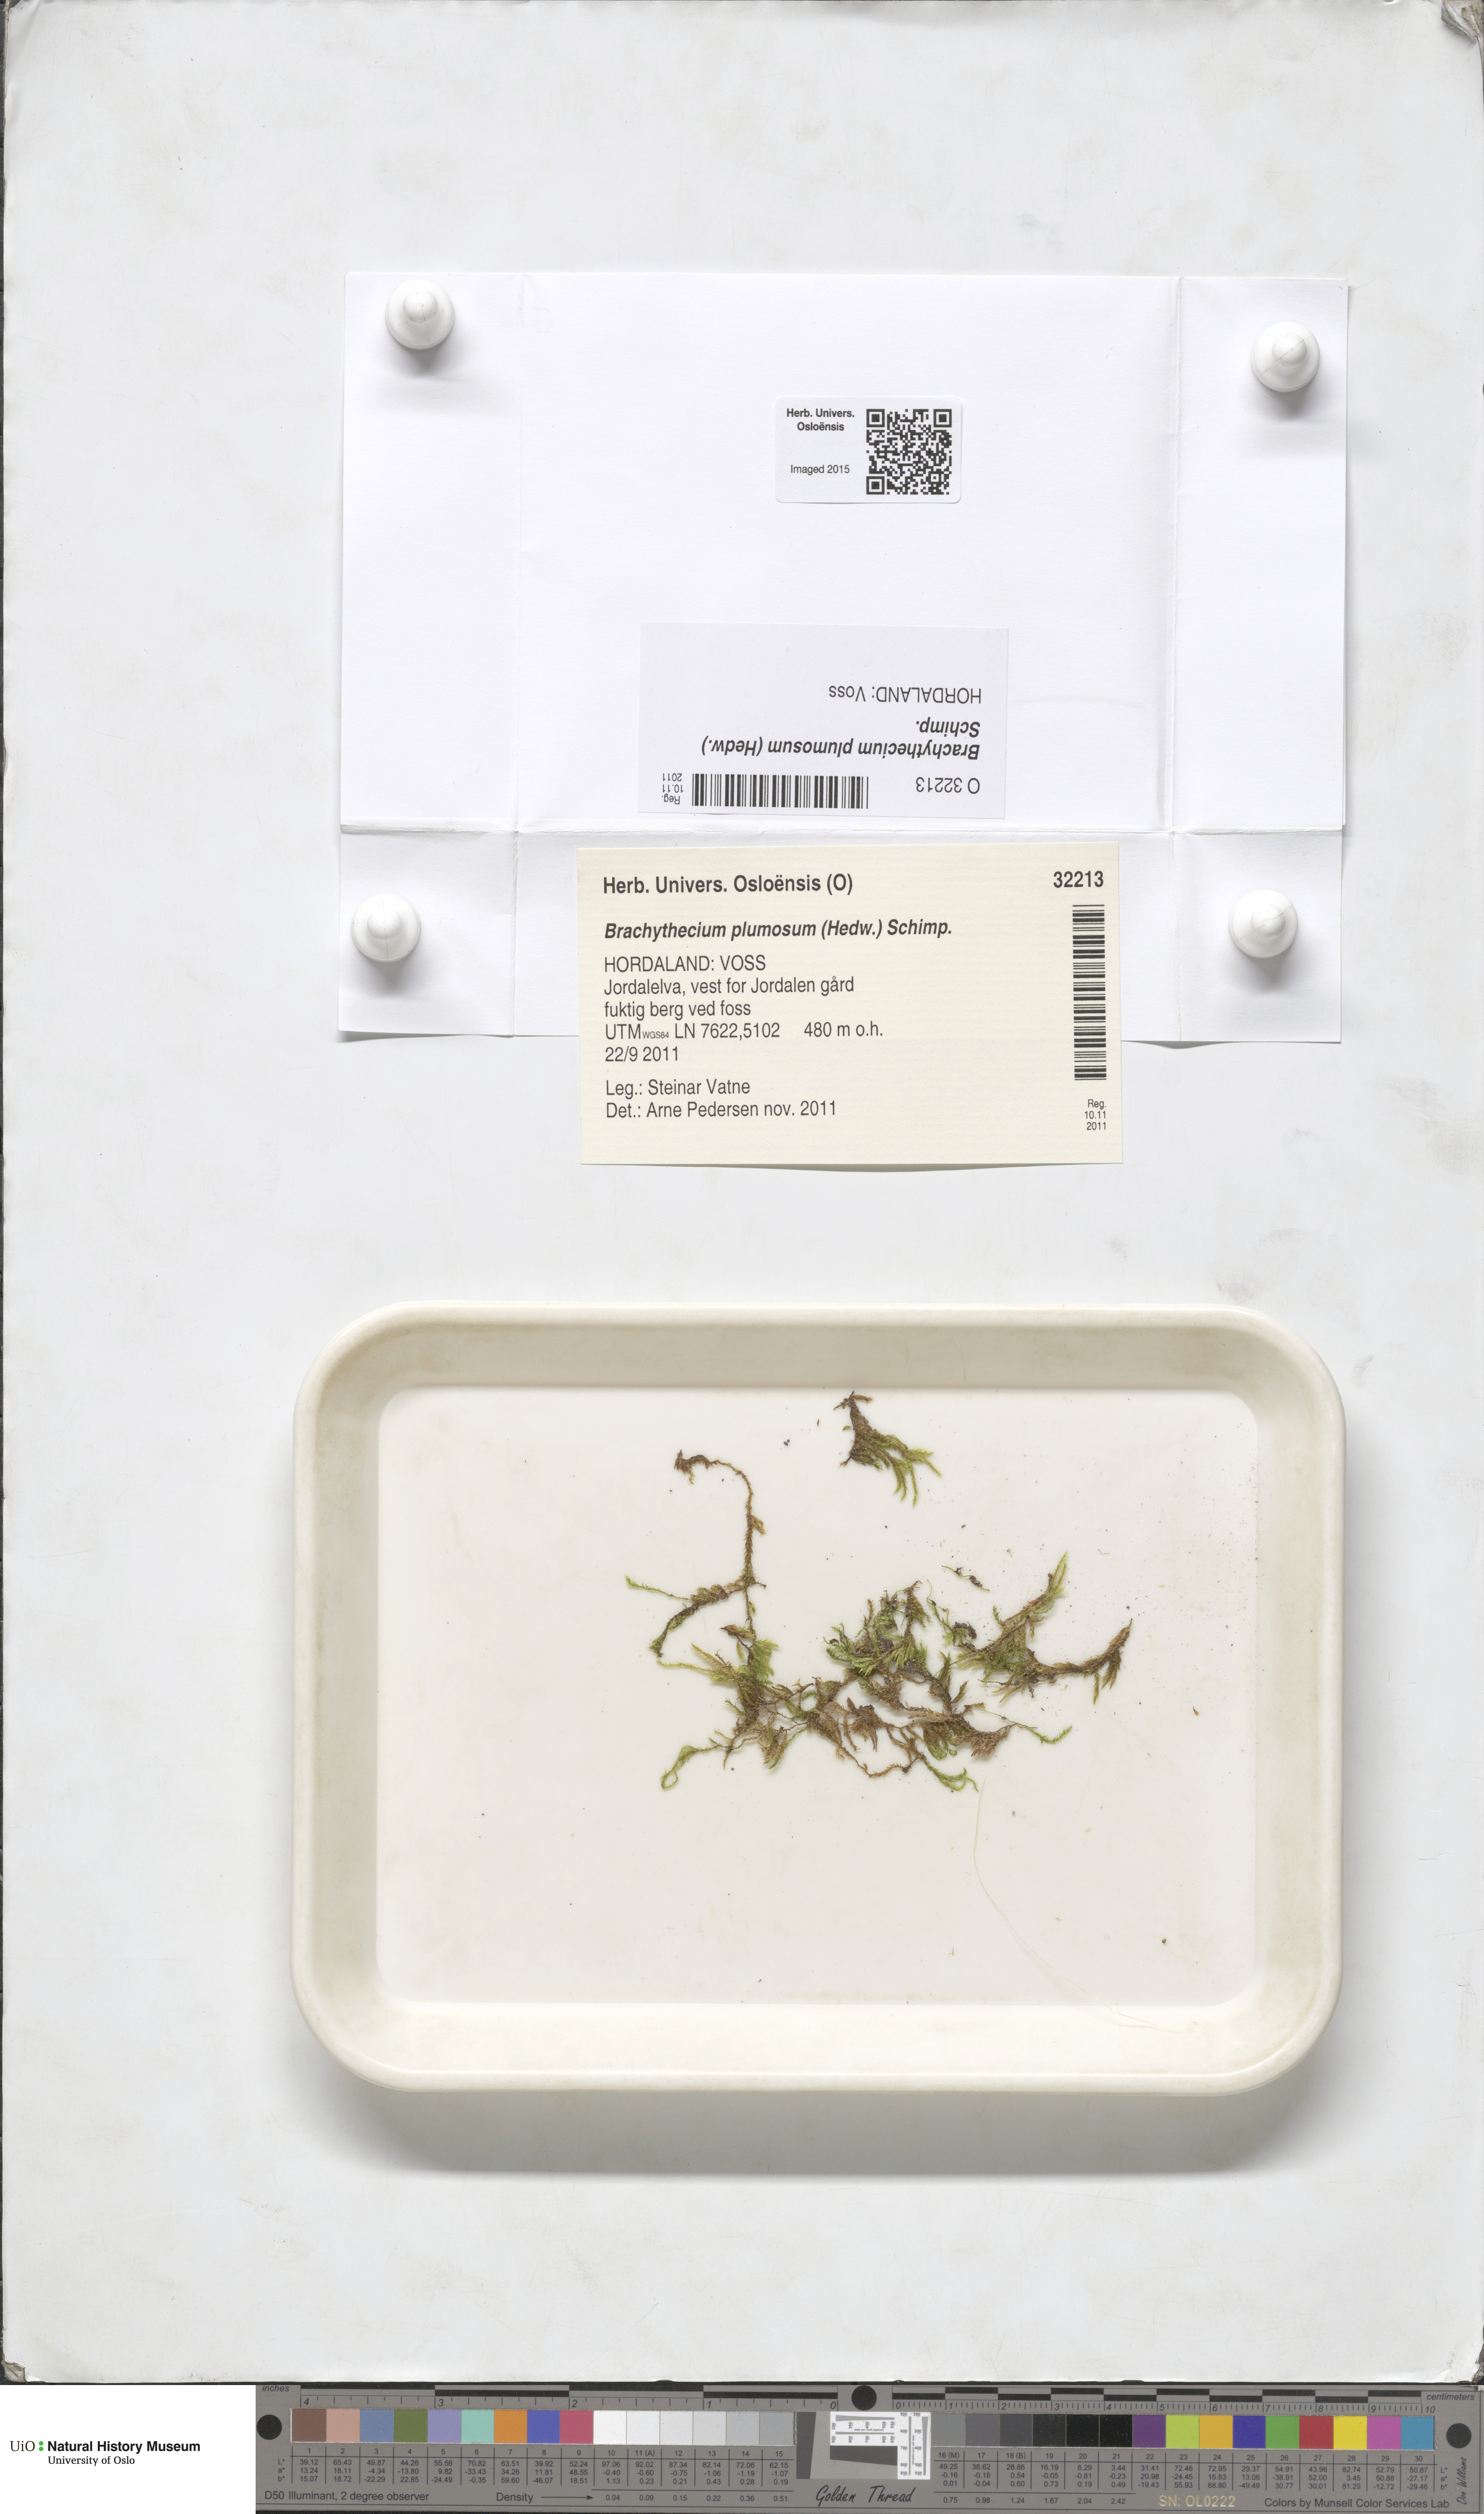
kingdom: Plantae
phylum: Bryophyta
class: Bryopsida
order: Hypnales
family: Brachytheciaceae
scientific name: Brachytheciaceae
